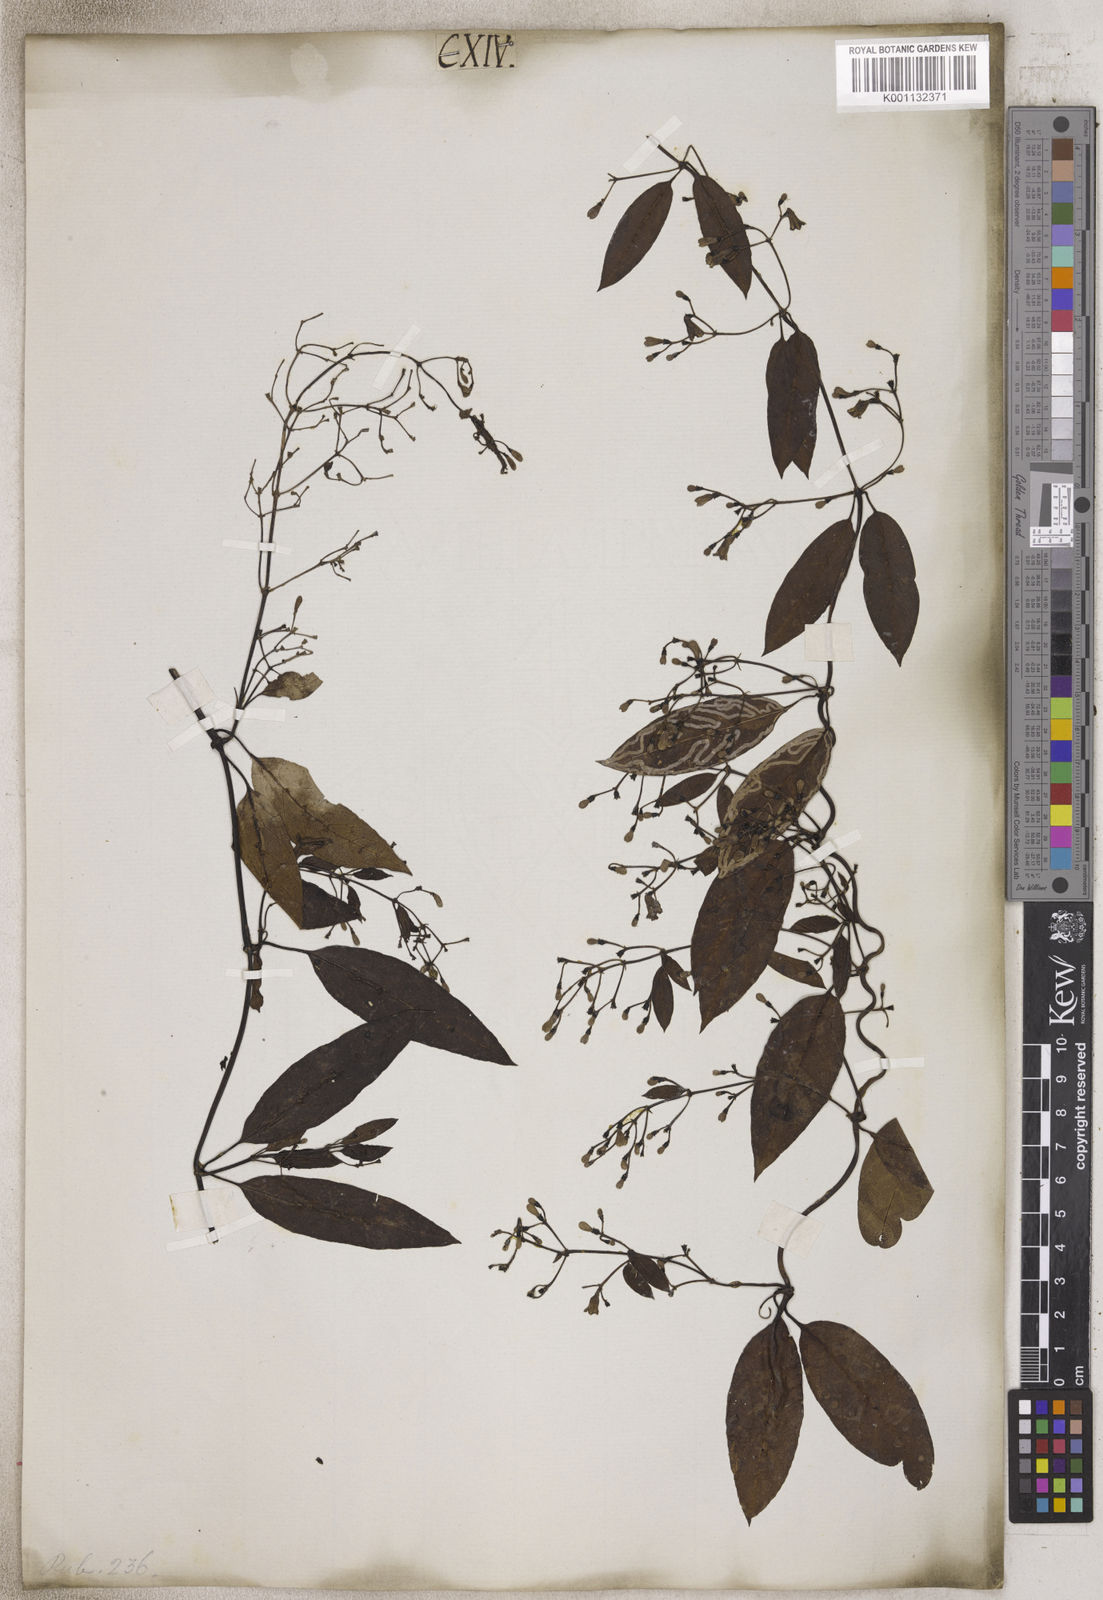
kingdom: Plantae
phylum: Tracheophyta
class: Magnoliopsida
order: Gentianales
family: Rubiaceae
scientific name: Rubiaceae
